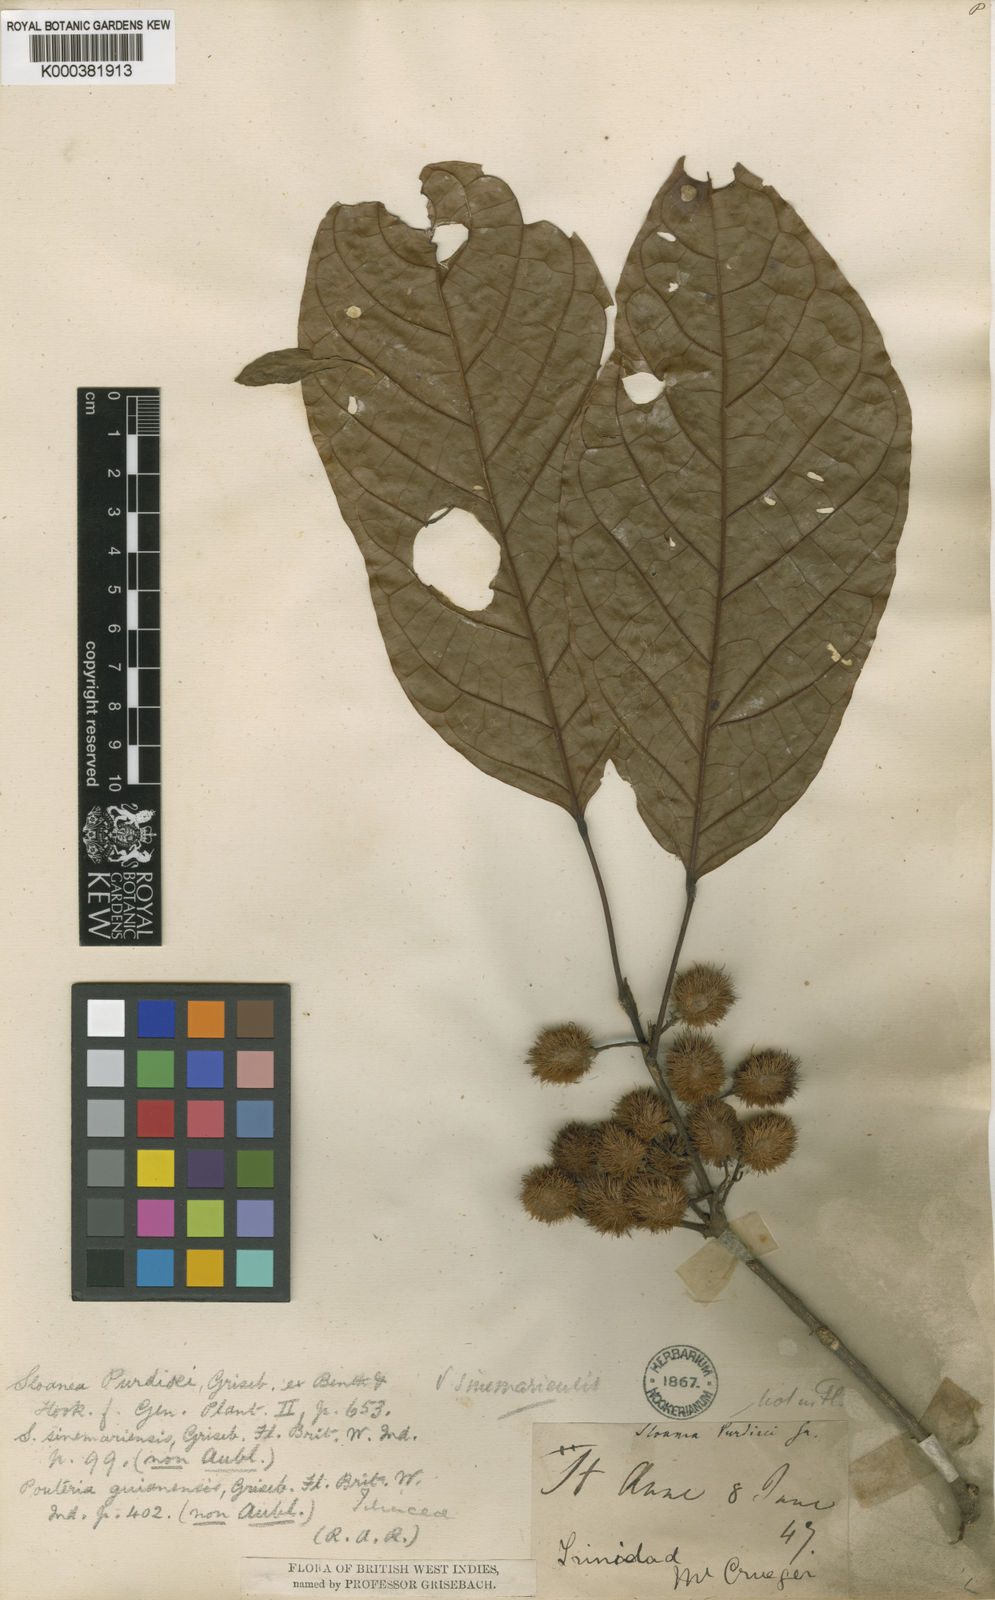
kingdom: Plantae
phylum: Tracheophyta
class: Magnoliopsida
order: Oxalidales
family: Elaeocarpaceae
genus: Sloanea
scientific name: Sloanea guianensis
